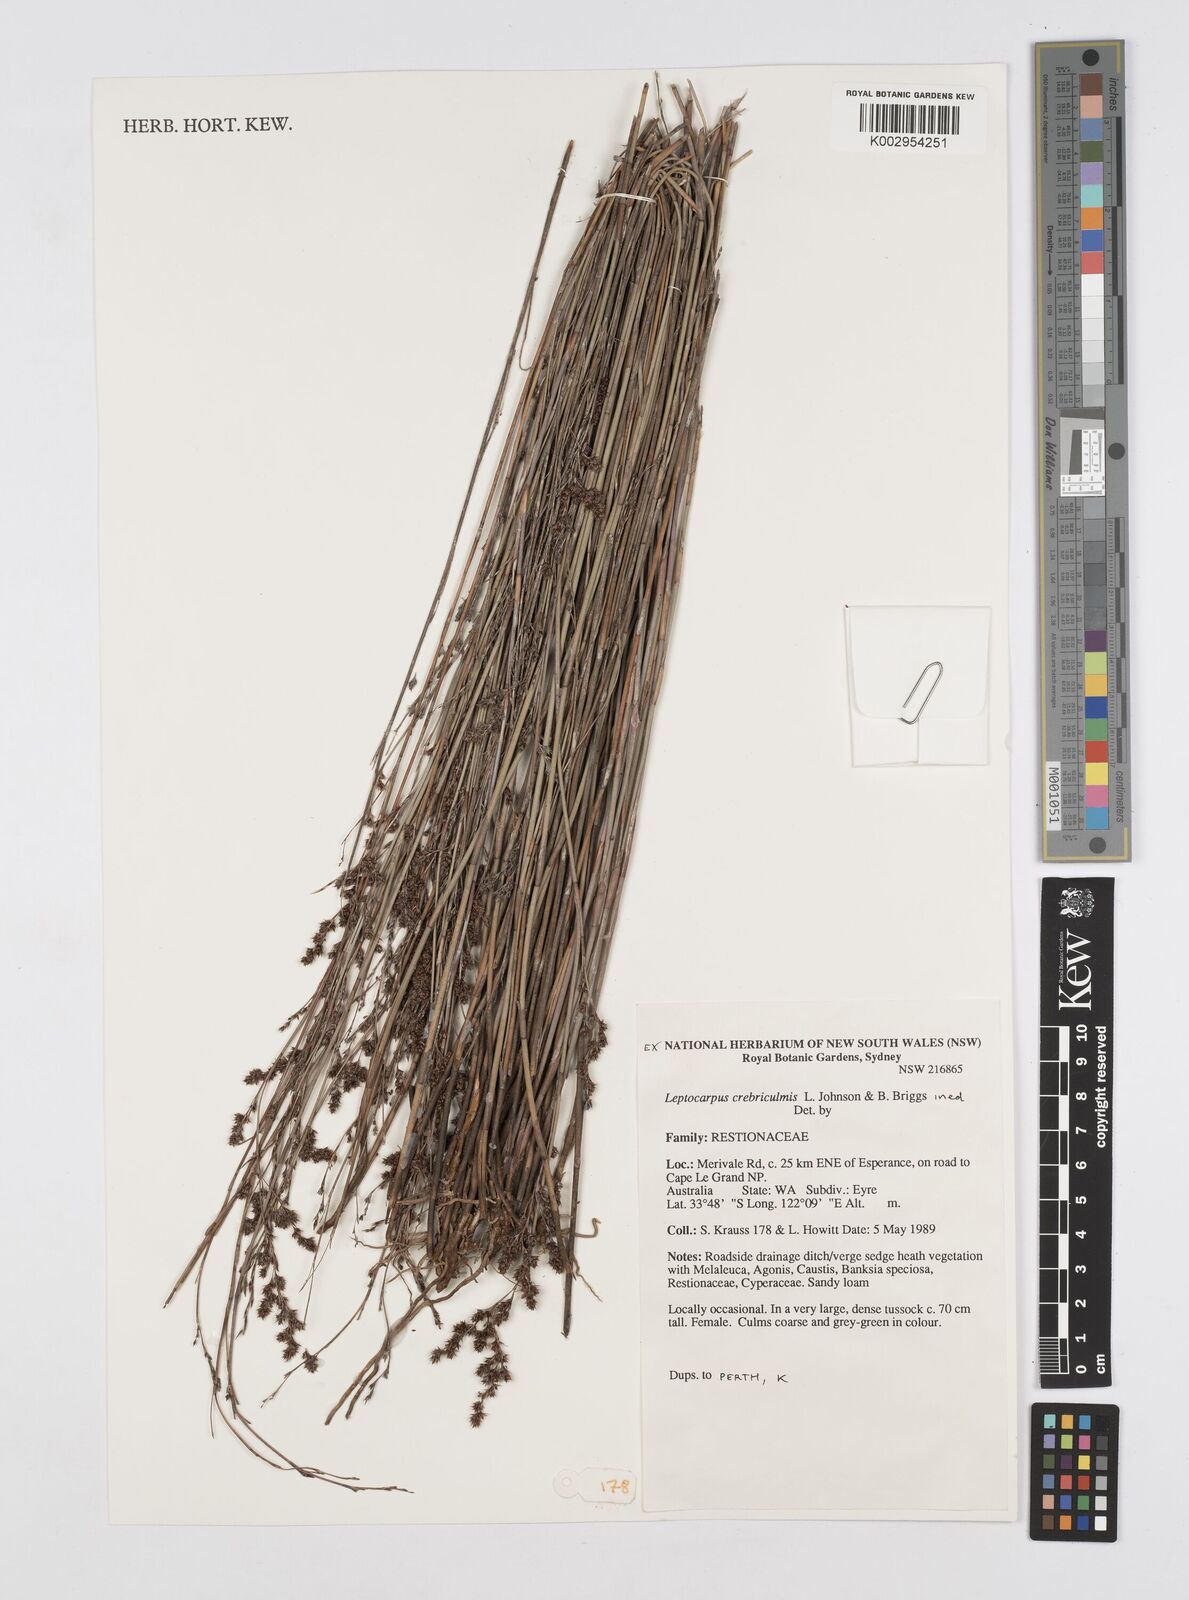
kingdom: Plantae
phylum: Tracheophyta
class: Liliopsida
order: Poales
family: Restionaceae
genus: Leptocarpus
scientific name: Leptocarpus crebriculmis
